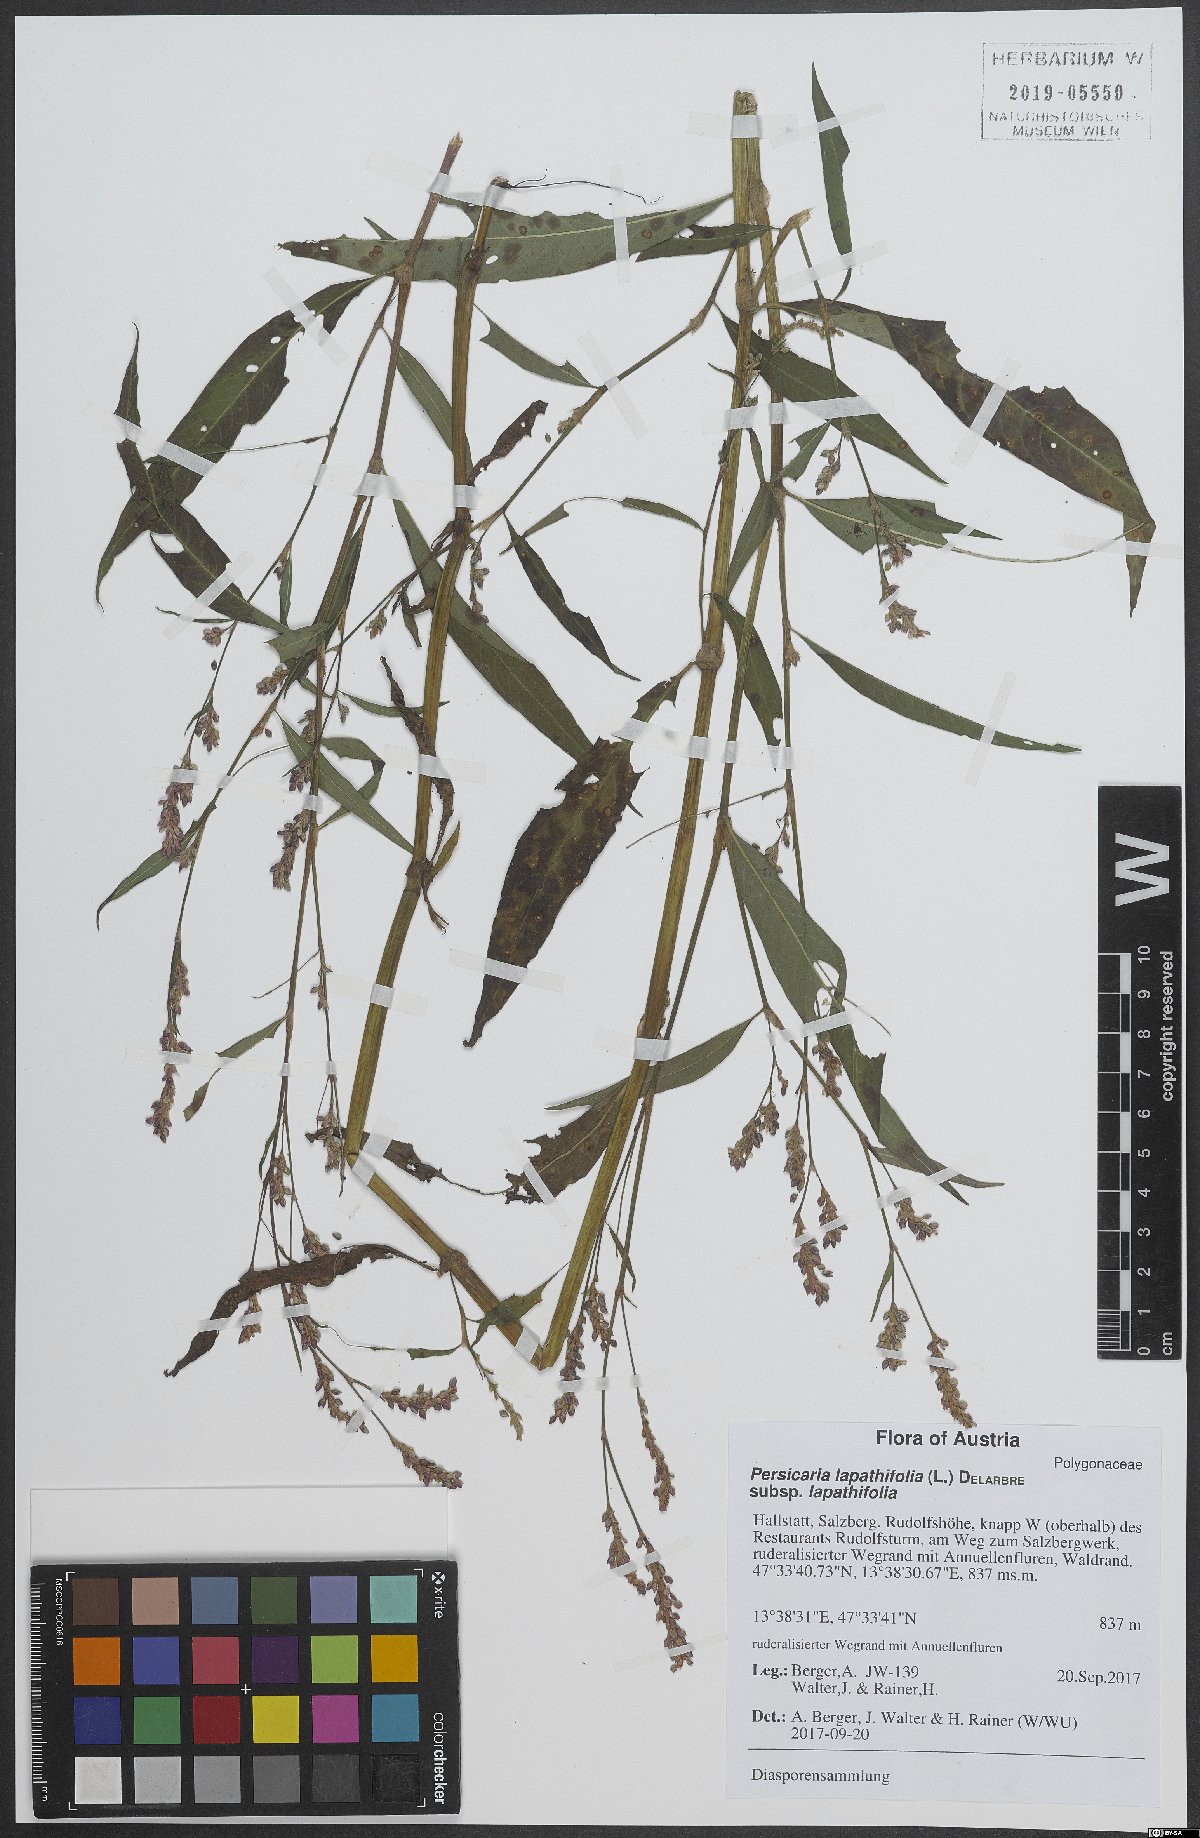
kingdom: Plantae
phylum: Tracheophyta
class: Magnoliopsida
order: Caryophyllales
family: Polygonaceae
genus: Persicaria
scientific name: Persicaria maculosa
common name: Redshank
